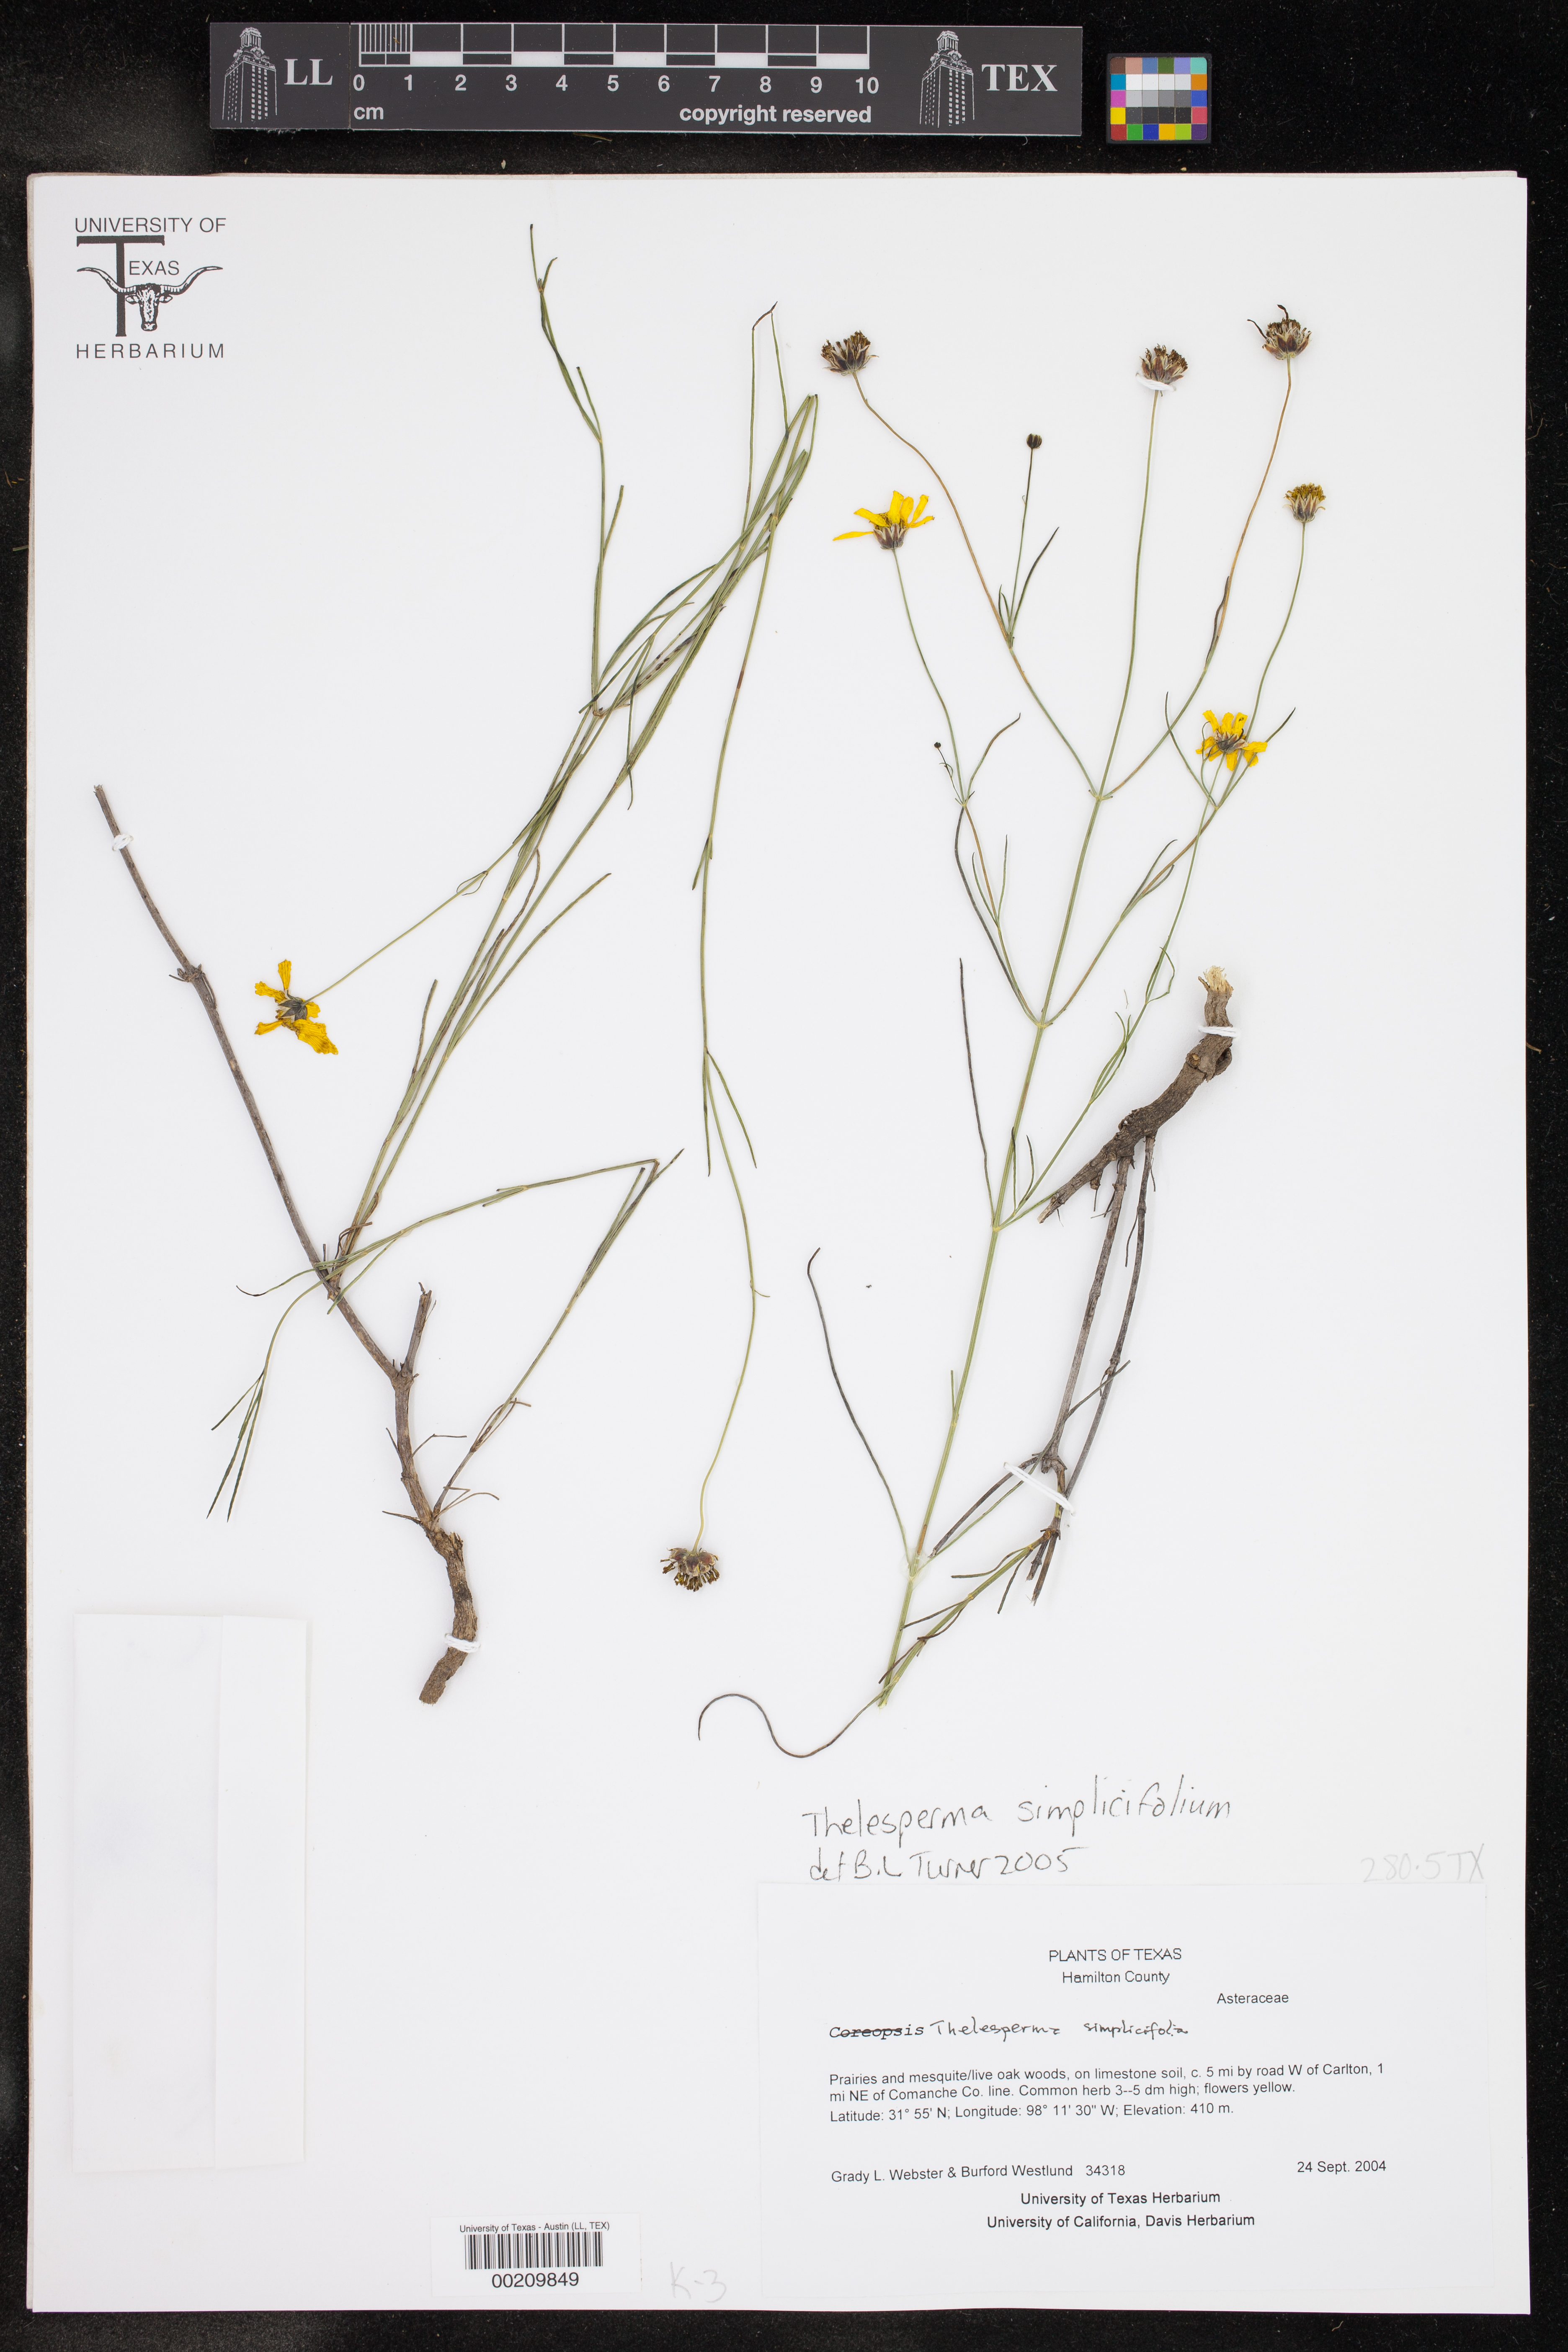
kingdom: Plantae
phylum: Tracheophyta
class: Magnoliopsida
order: Asterales
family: Asteraceae
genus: Thelesperma
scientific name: Thelesperma simplicifolium
